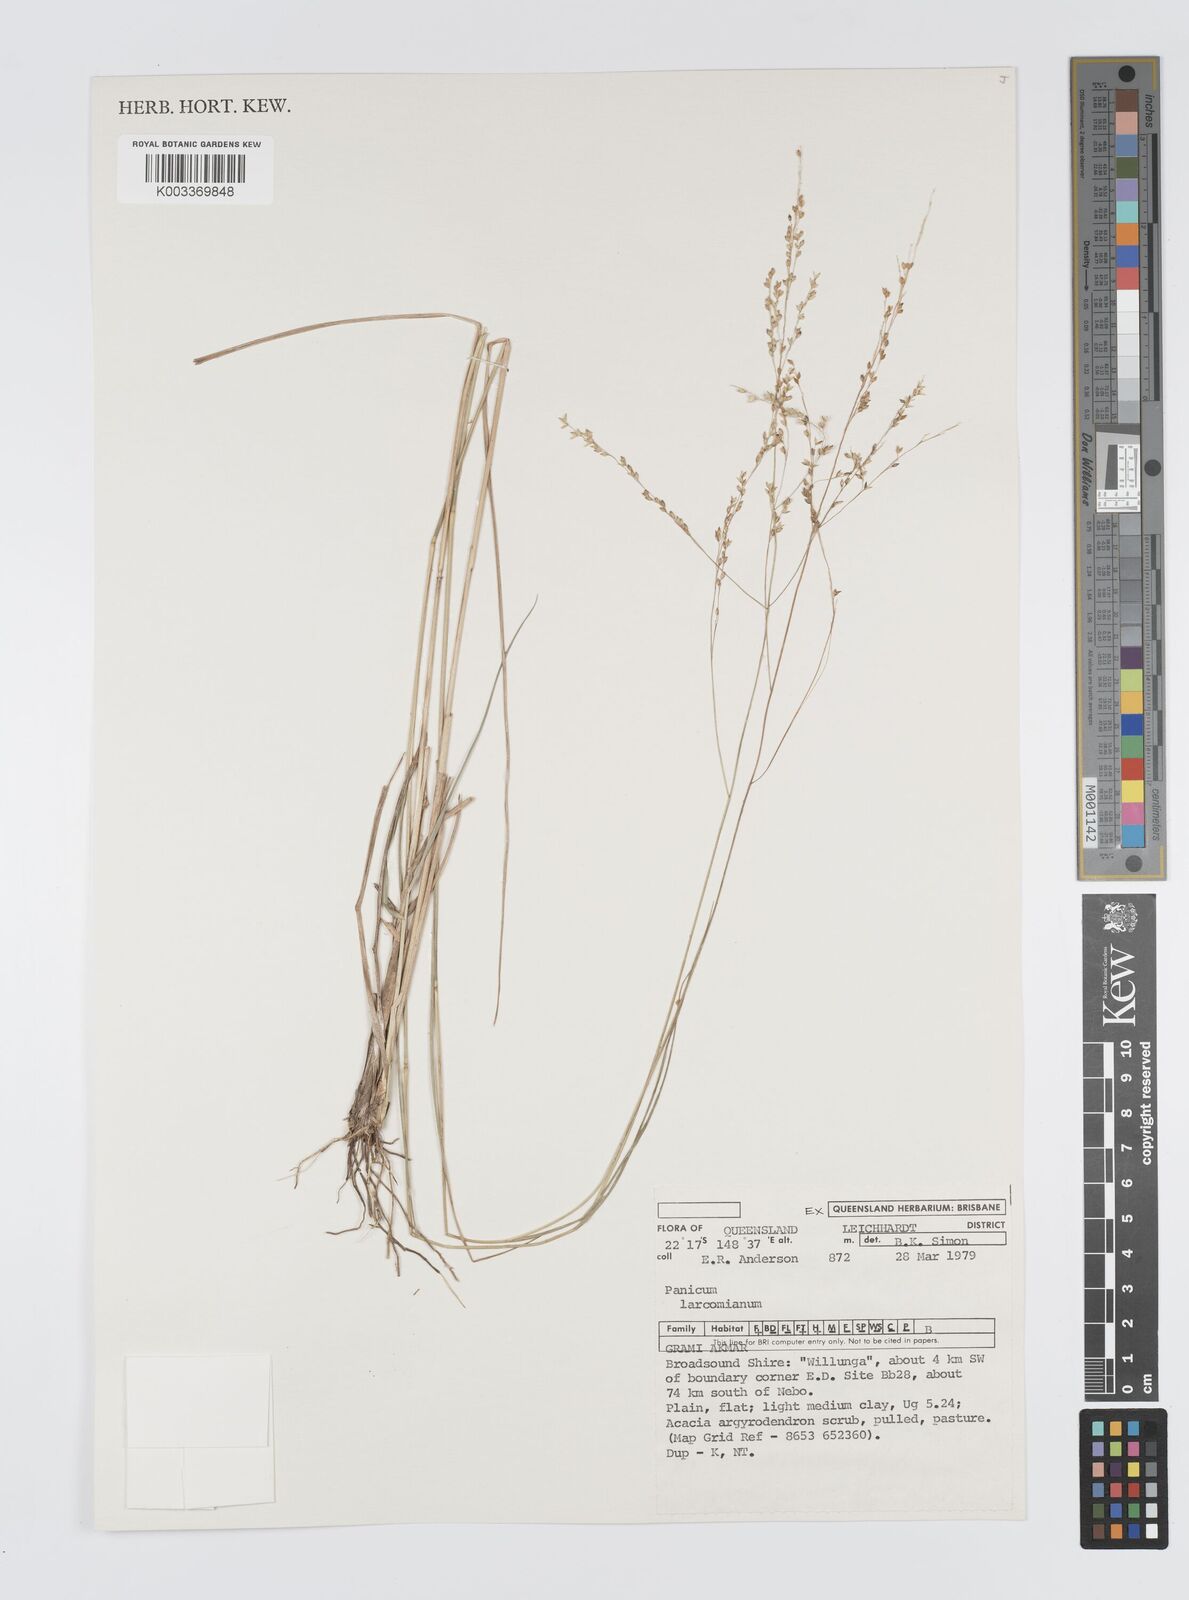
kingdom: Plantae
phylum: Tracheophyta
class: Liliopsida
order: Poales
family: Poaceae
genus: Panicum
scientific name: Panicum larcomianum
